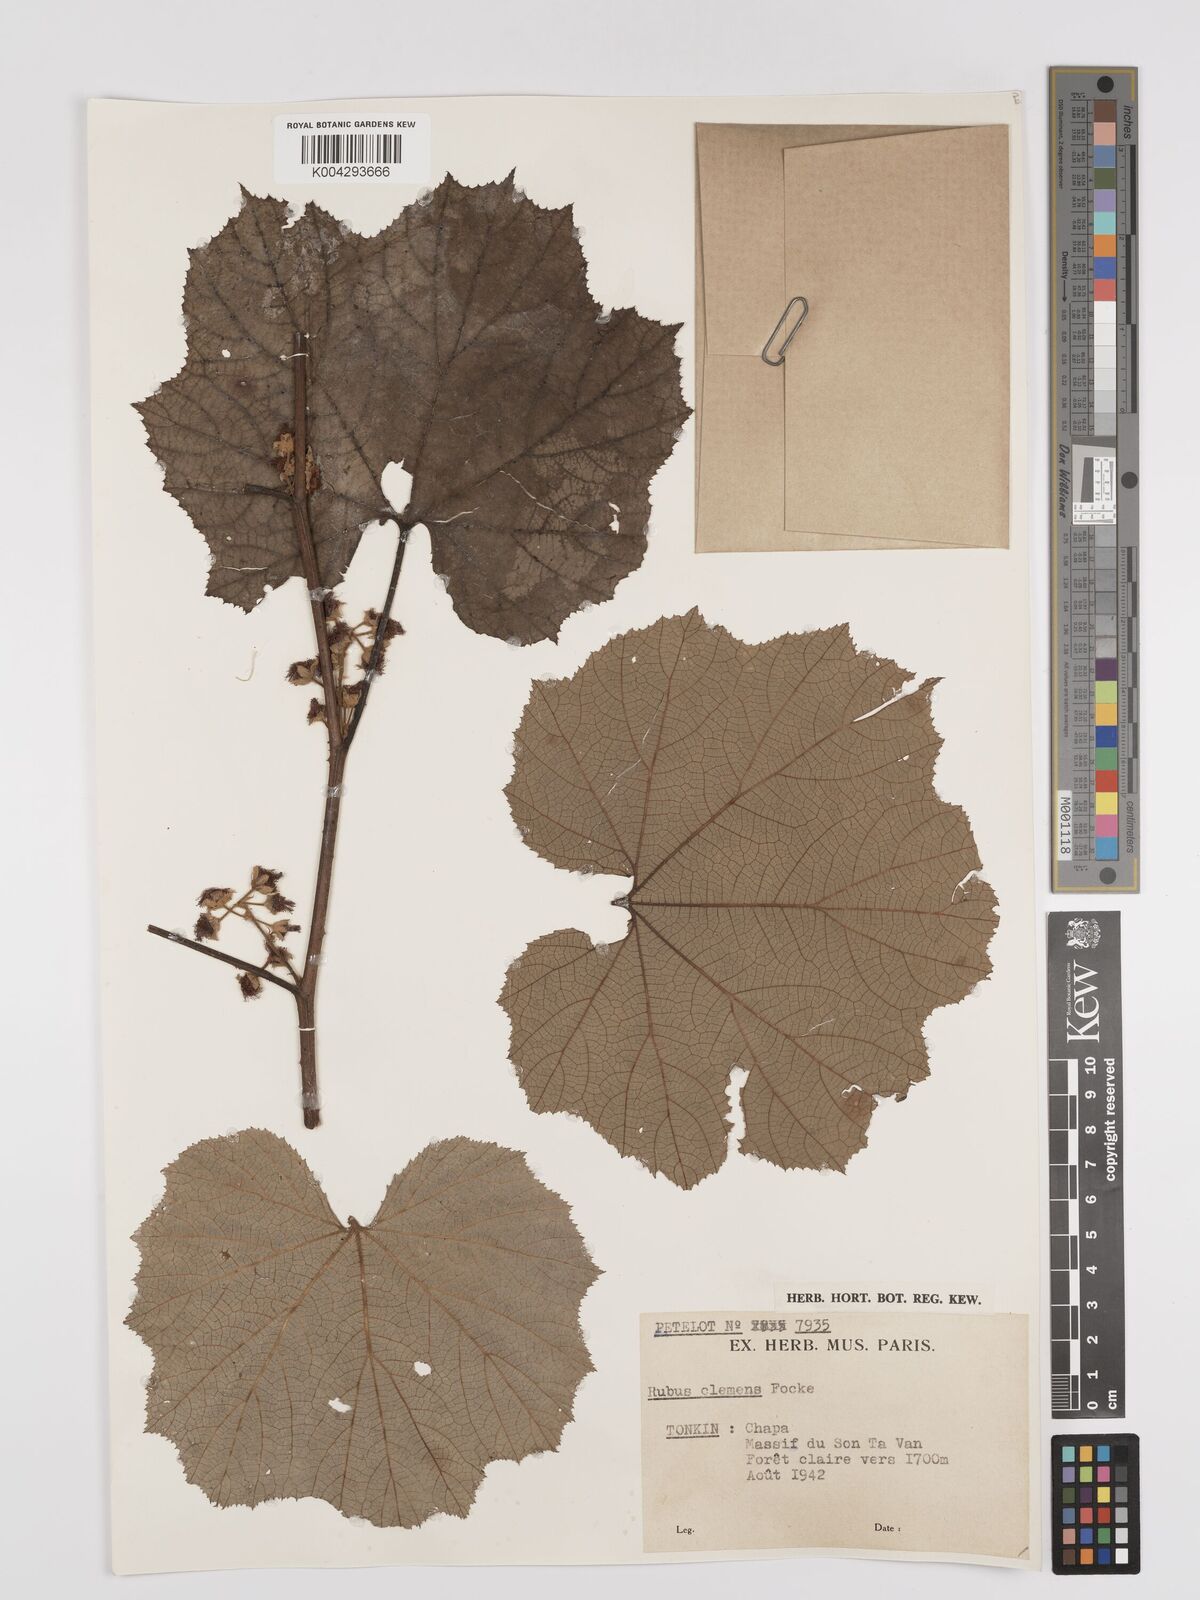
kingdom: Plantae
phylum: Tracheophyta
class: Magnoliopsida
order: Rosales
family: Rosaceae
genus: Rubus
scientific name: Rubus setchuenensis
